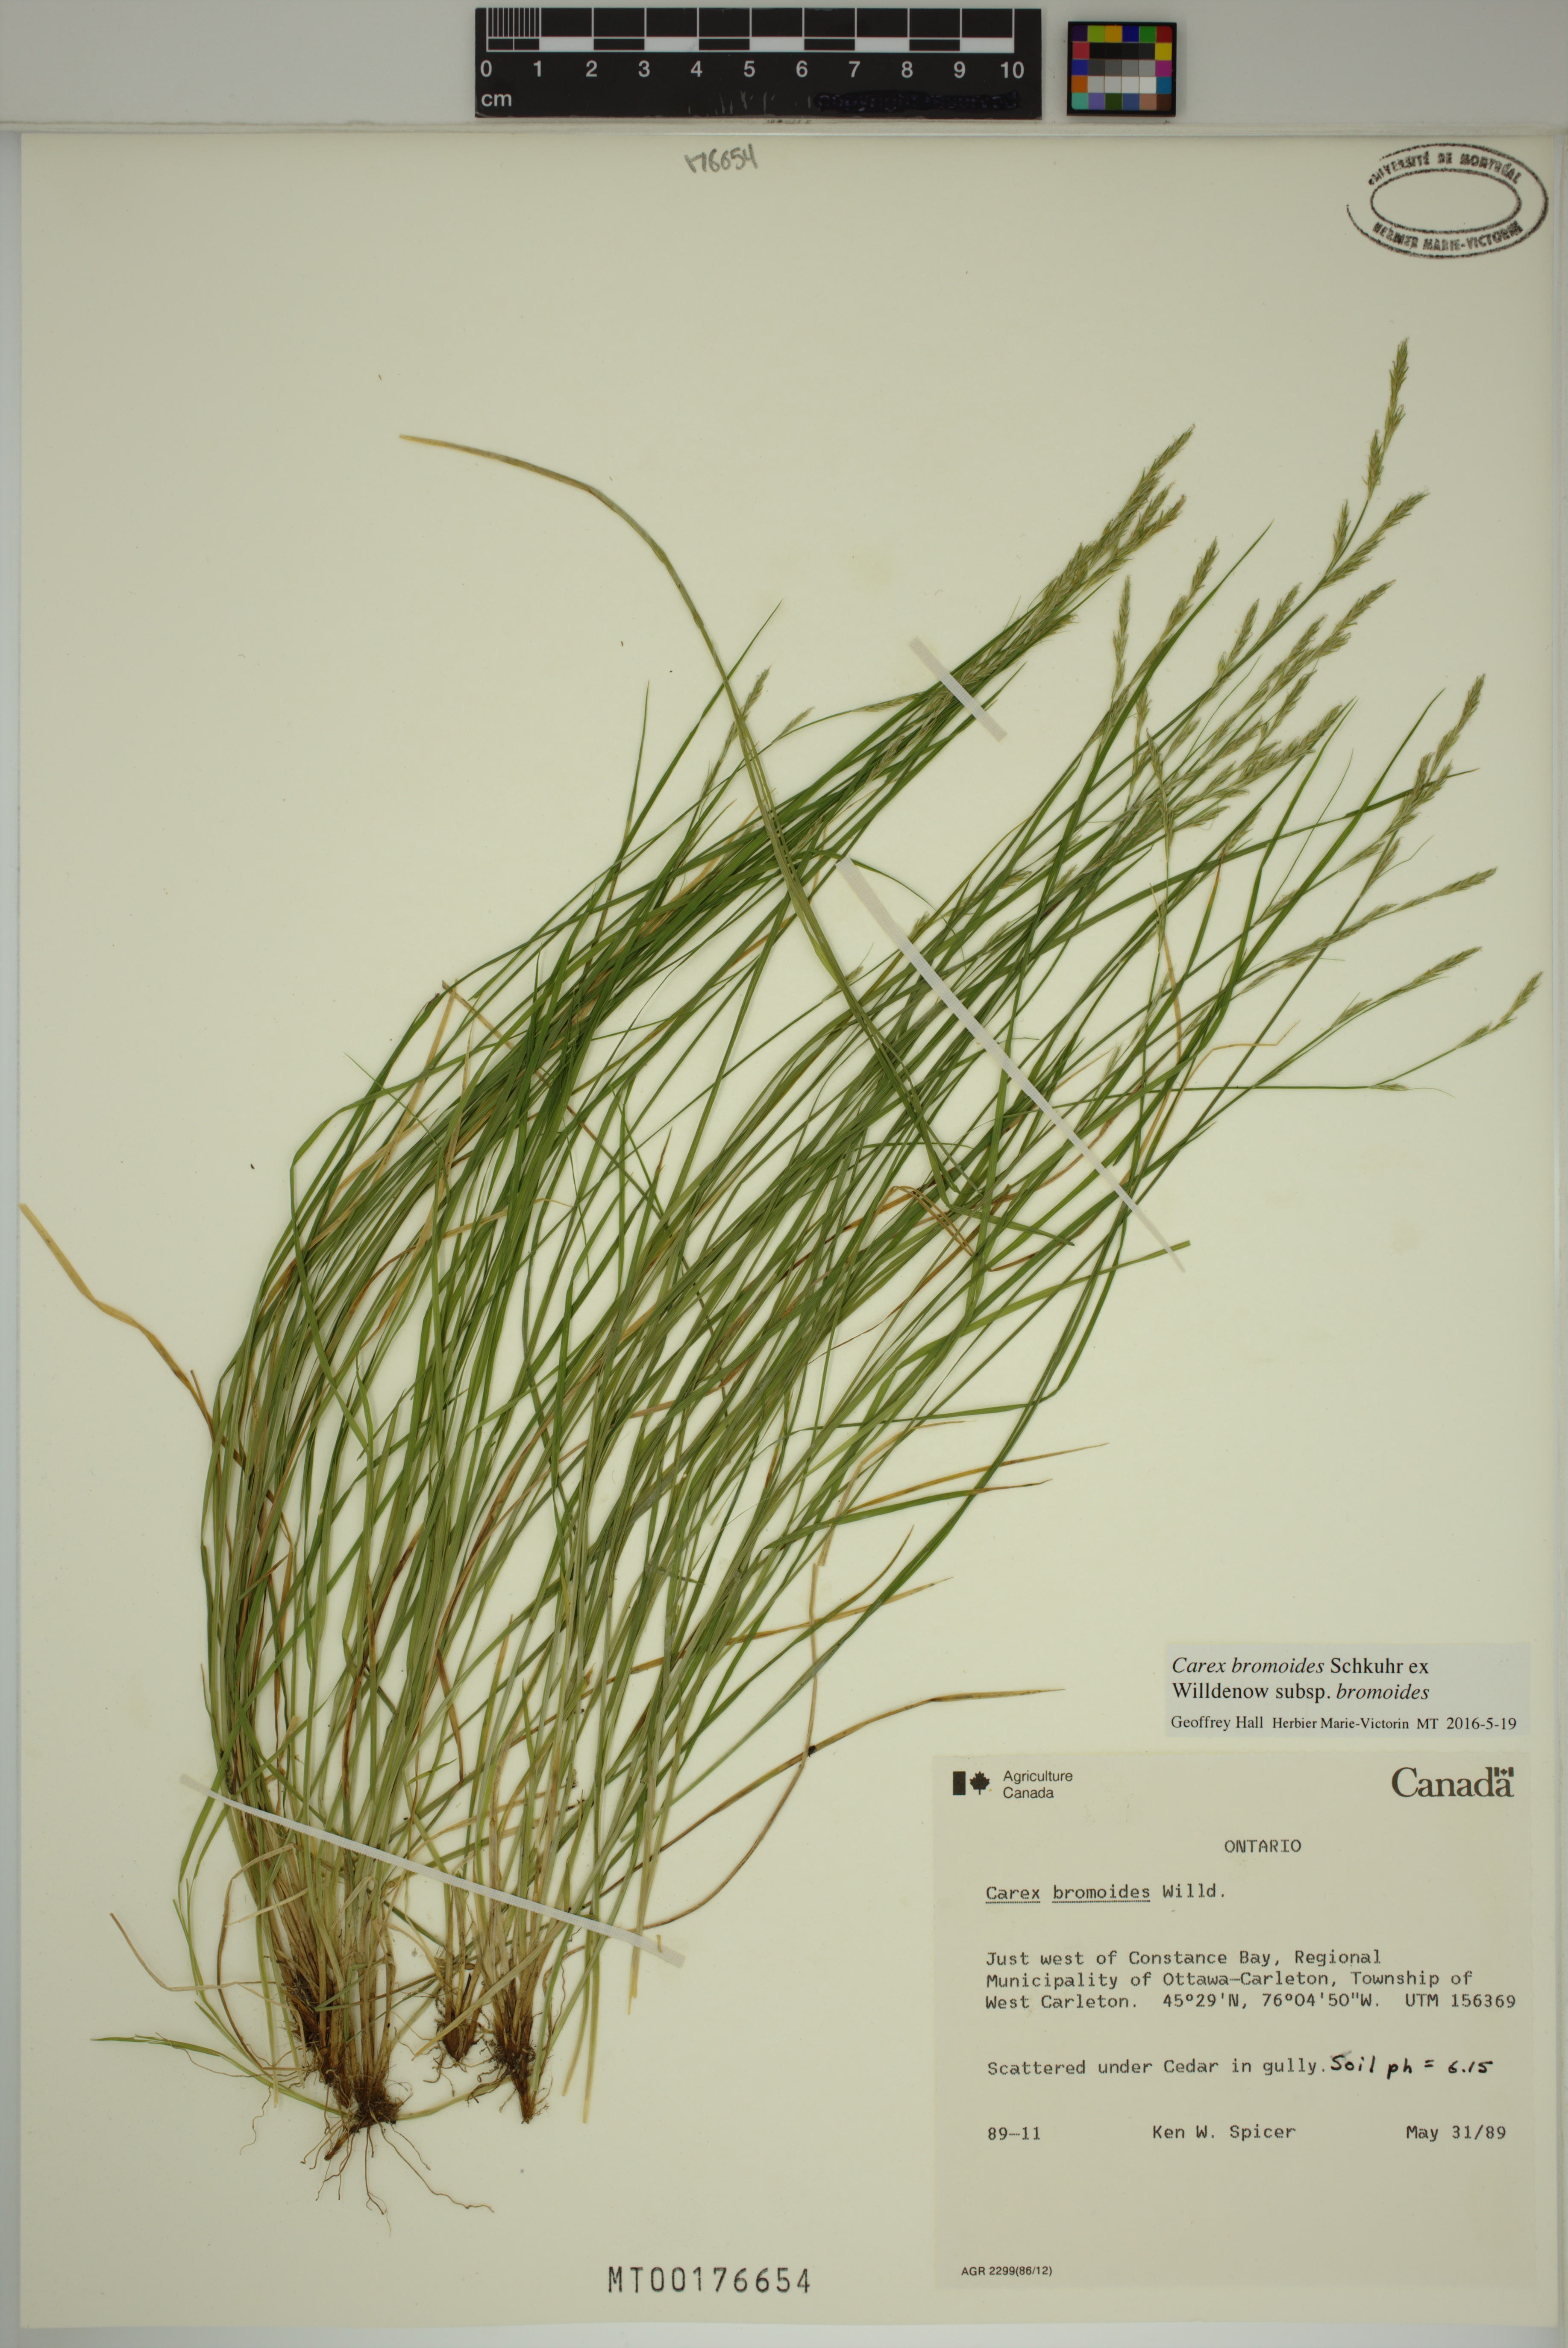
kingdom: Plantae
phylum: Tracheophyta
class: Liliopsida
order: Poales
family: Cyperaceae
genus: Carex
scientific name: Carex bromoides
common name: Brome hummock sedge
